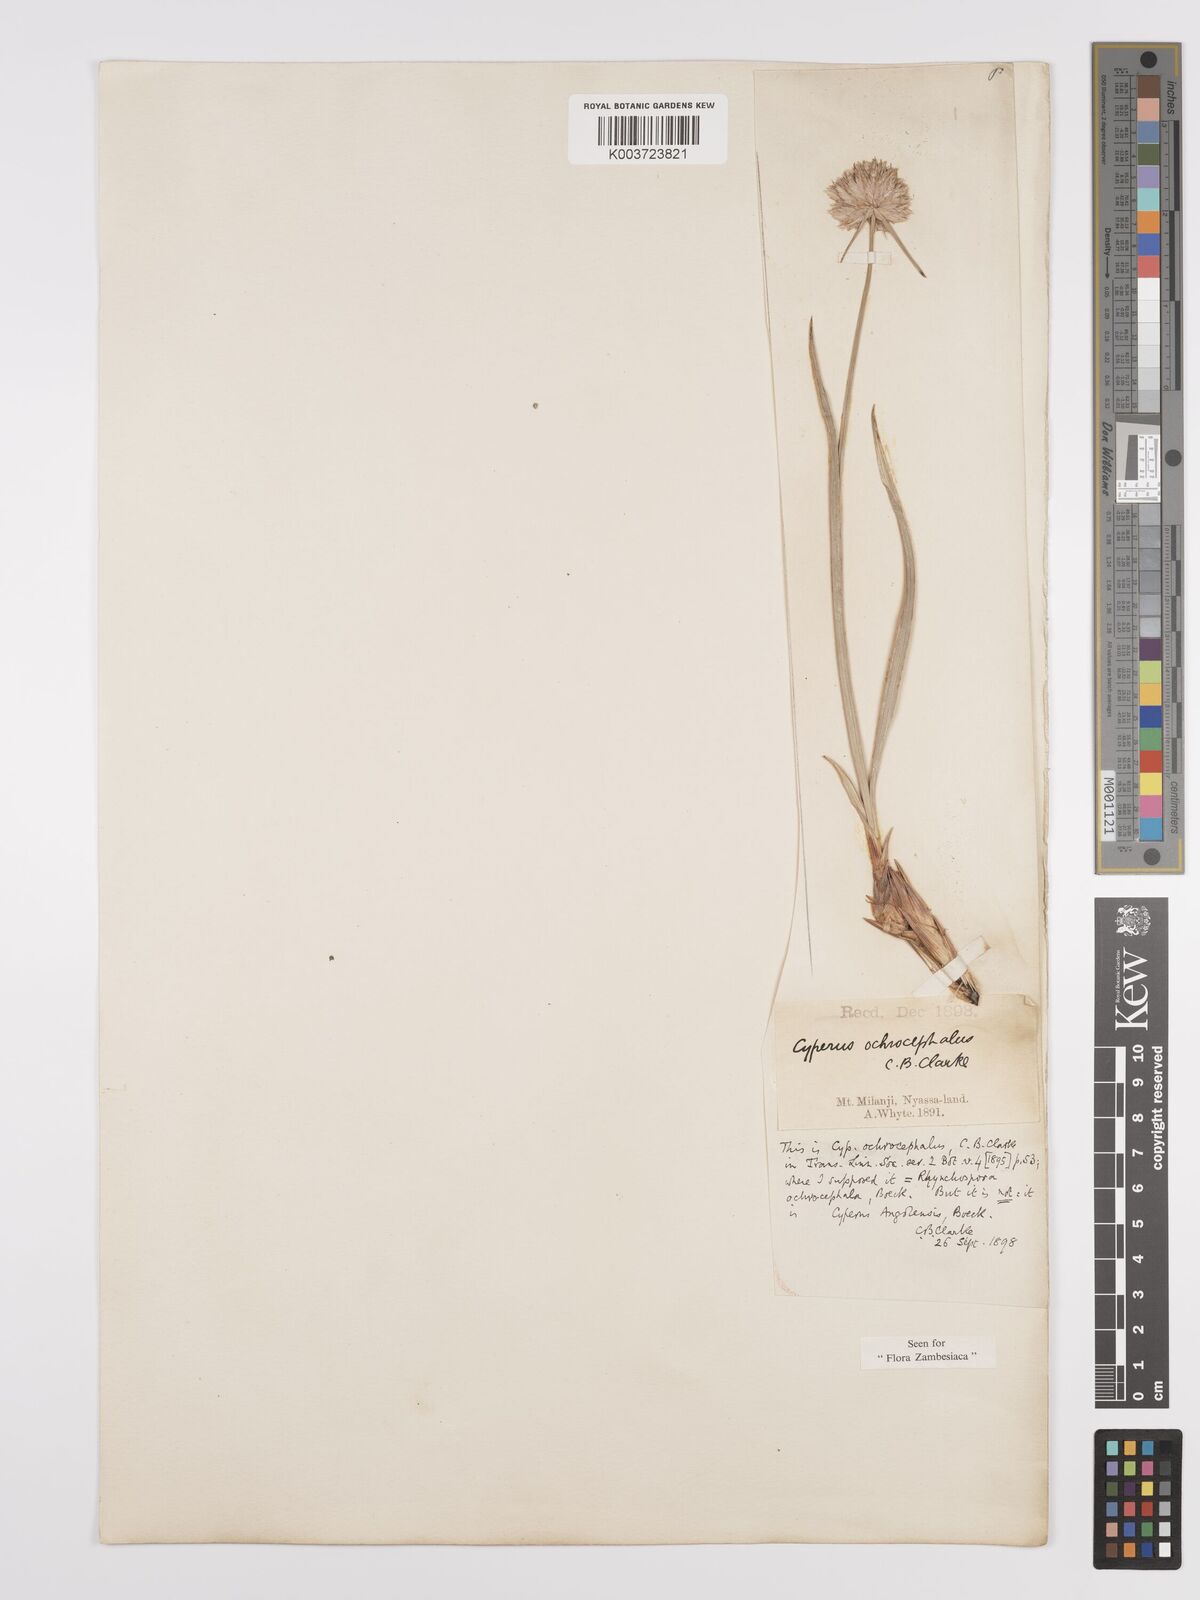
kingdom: Plantae
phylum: Tracheophyta
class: Liliopsida
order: Poales
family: Cyperaceae
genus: Cyperus
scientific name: Cyperus angolensis
